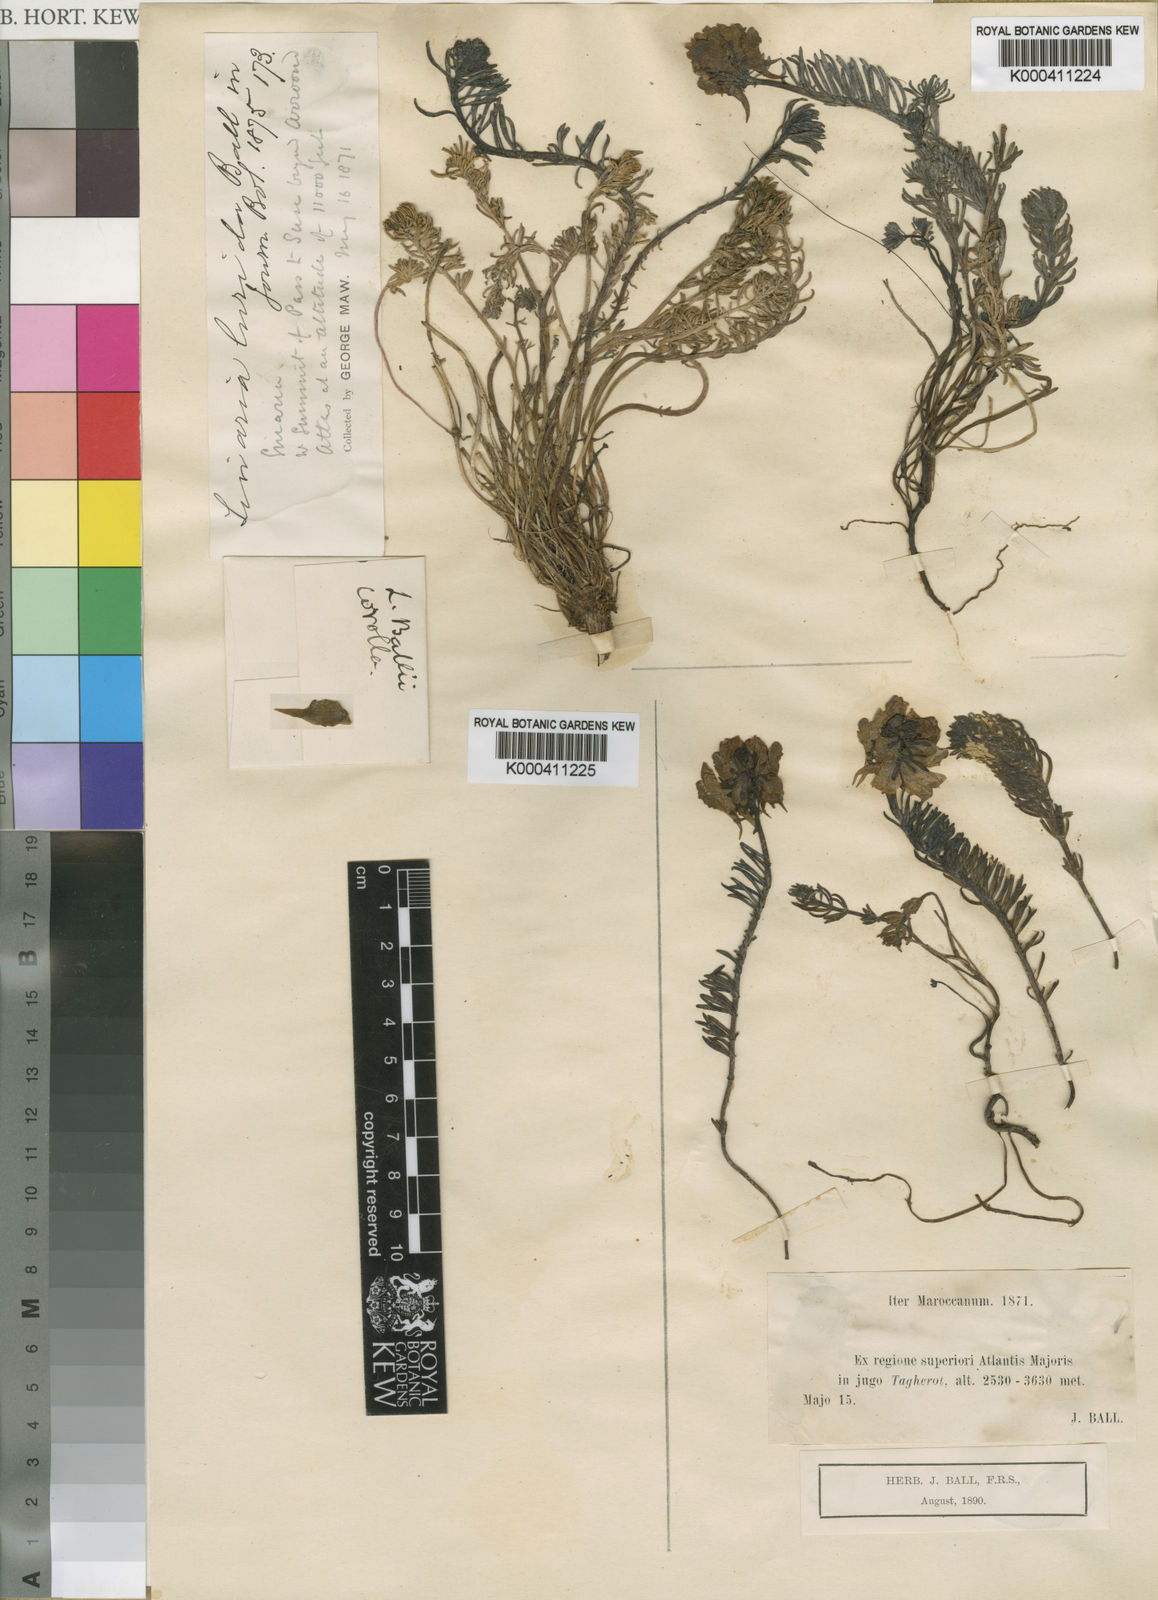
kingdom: Plantae
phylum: Tracheophyta
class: Magnoliopsida
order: Lamiales
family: Plantaginaceae
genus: Linaria
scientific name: Linaria tristis
